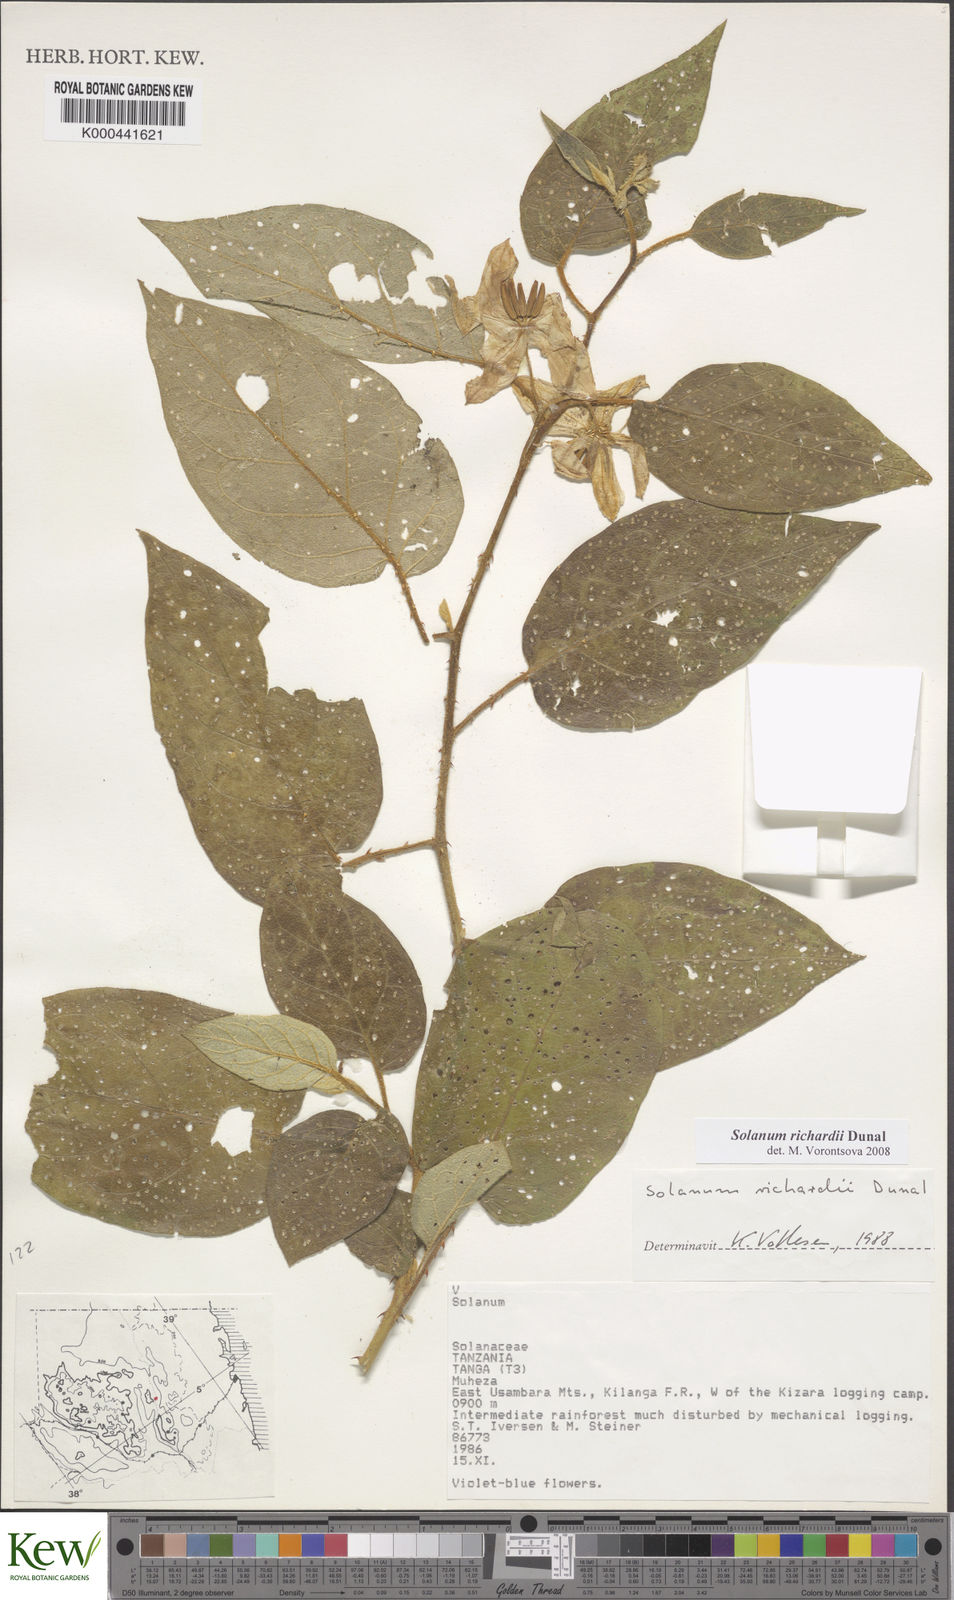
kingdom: Plantae
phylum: Tracheophyta
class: Magnoliopsida
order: Solanales
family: Solanaceae
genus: Solanum
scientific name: Solanum richardii
